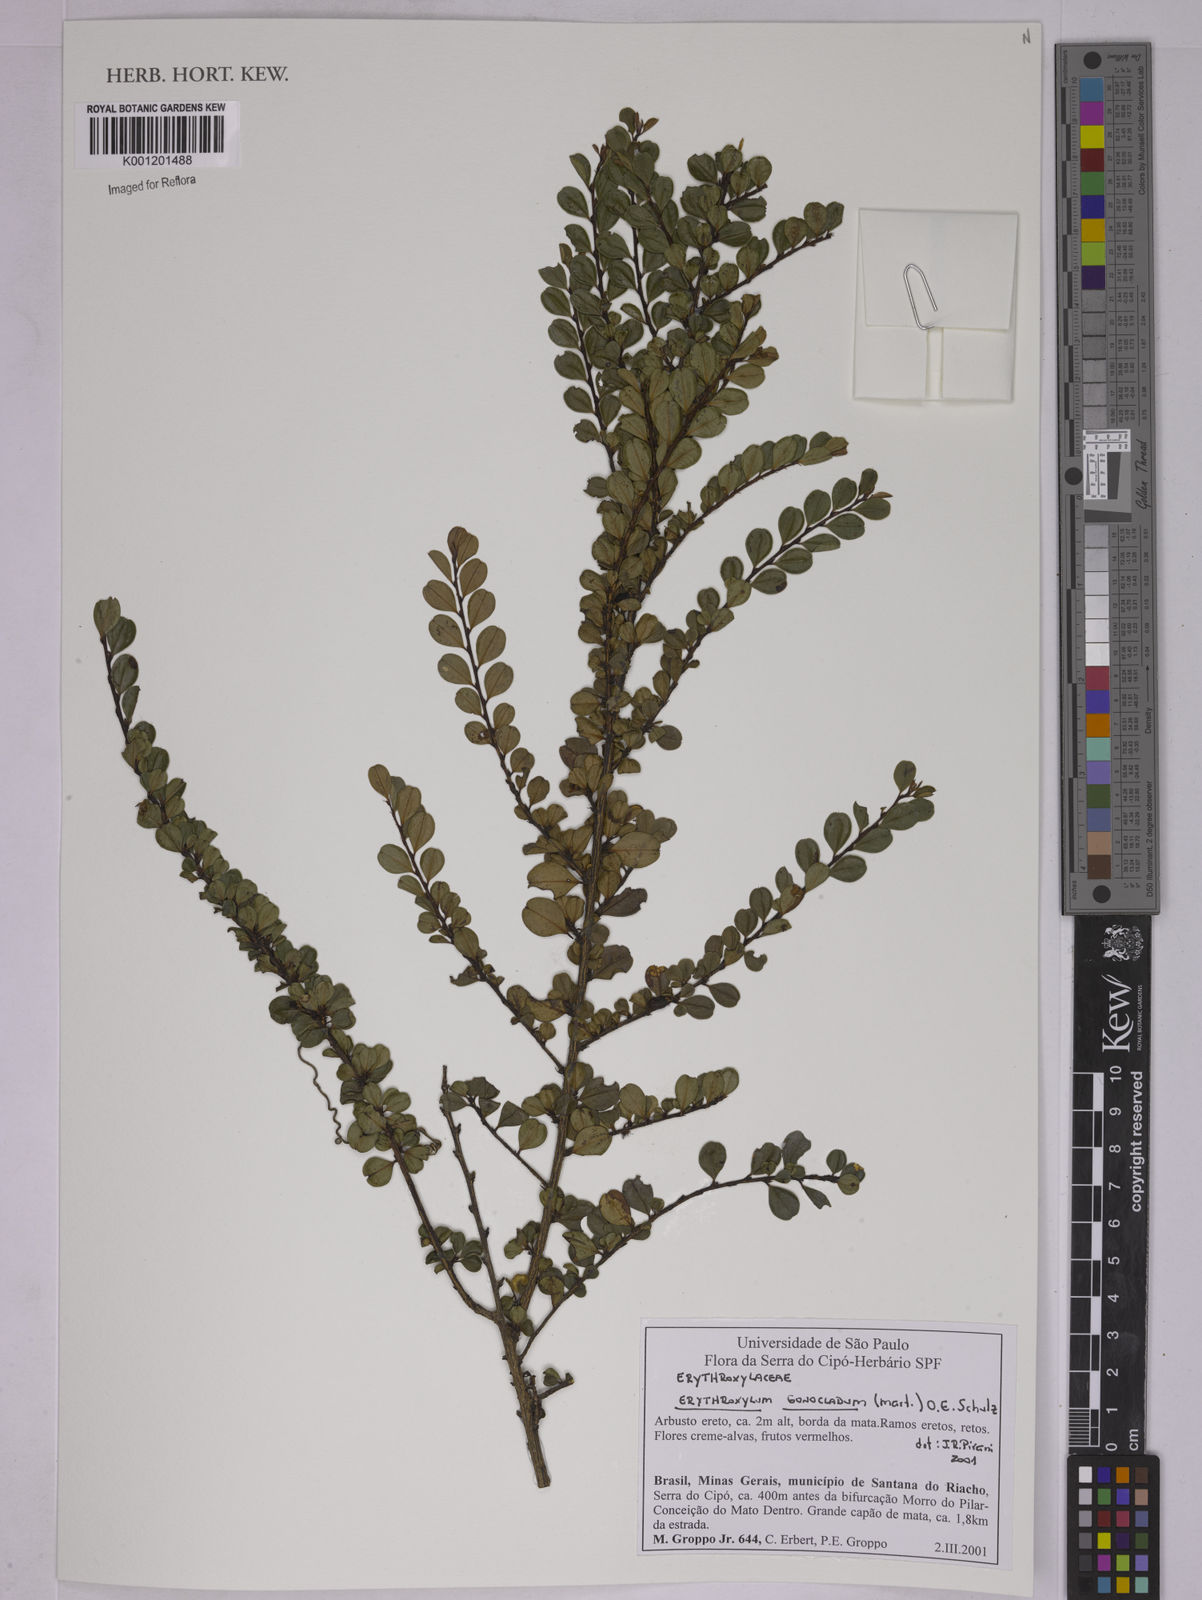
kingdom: Plantae
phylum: Tracheophyta
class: Magnoliopsida
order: Malpighiales
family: Erythroxylaceae
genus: Erythroxylum
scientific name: Erythroxylum
